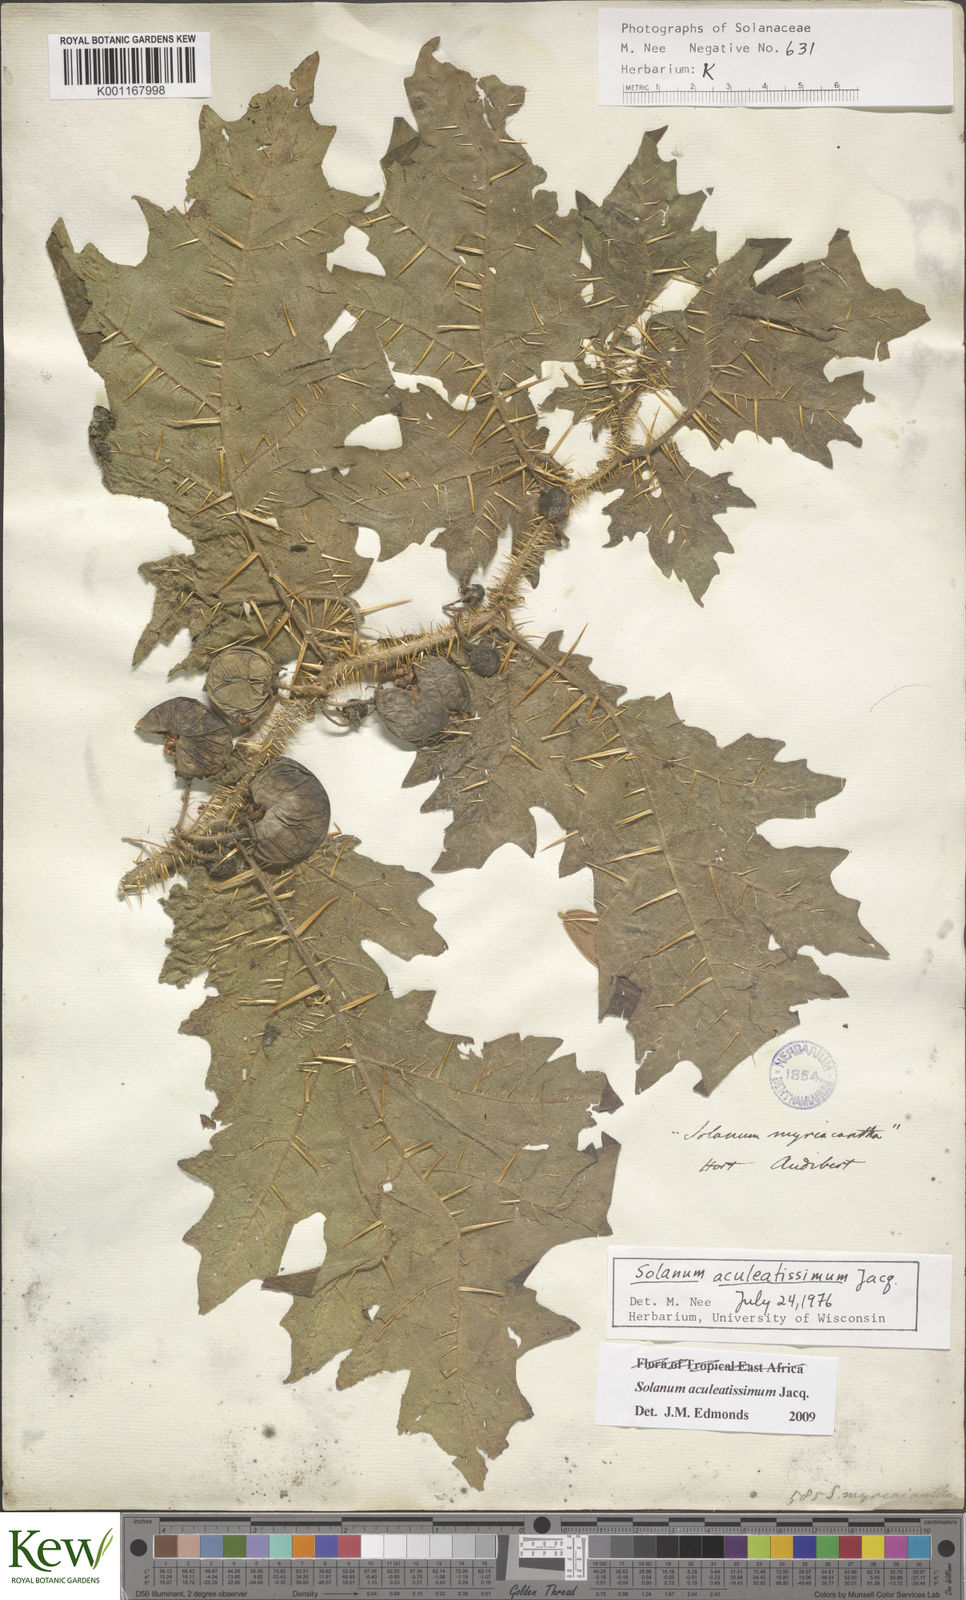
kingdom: Plantae
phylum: Tracheophyta
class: Magnoliopsida
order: Solanales
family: Solanaceae
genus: Solanum
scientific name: Solanum aculeatissimum
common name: Dutch eggplant
